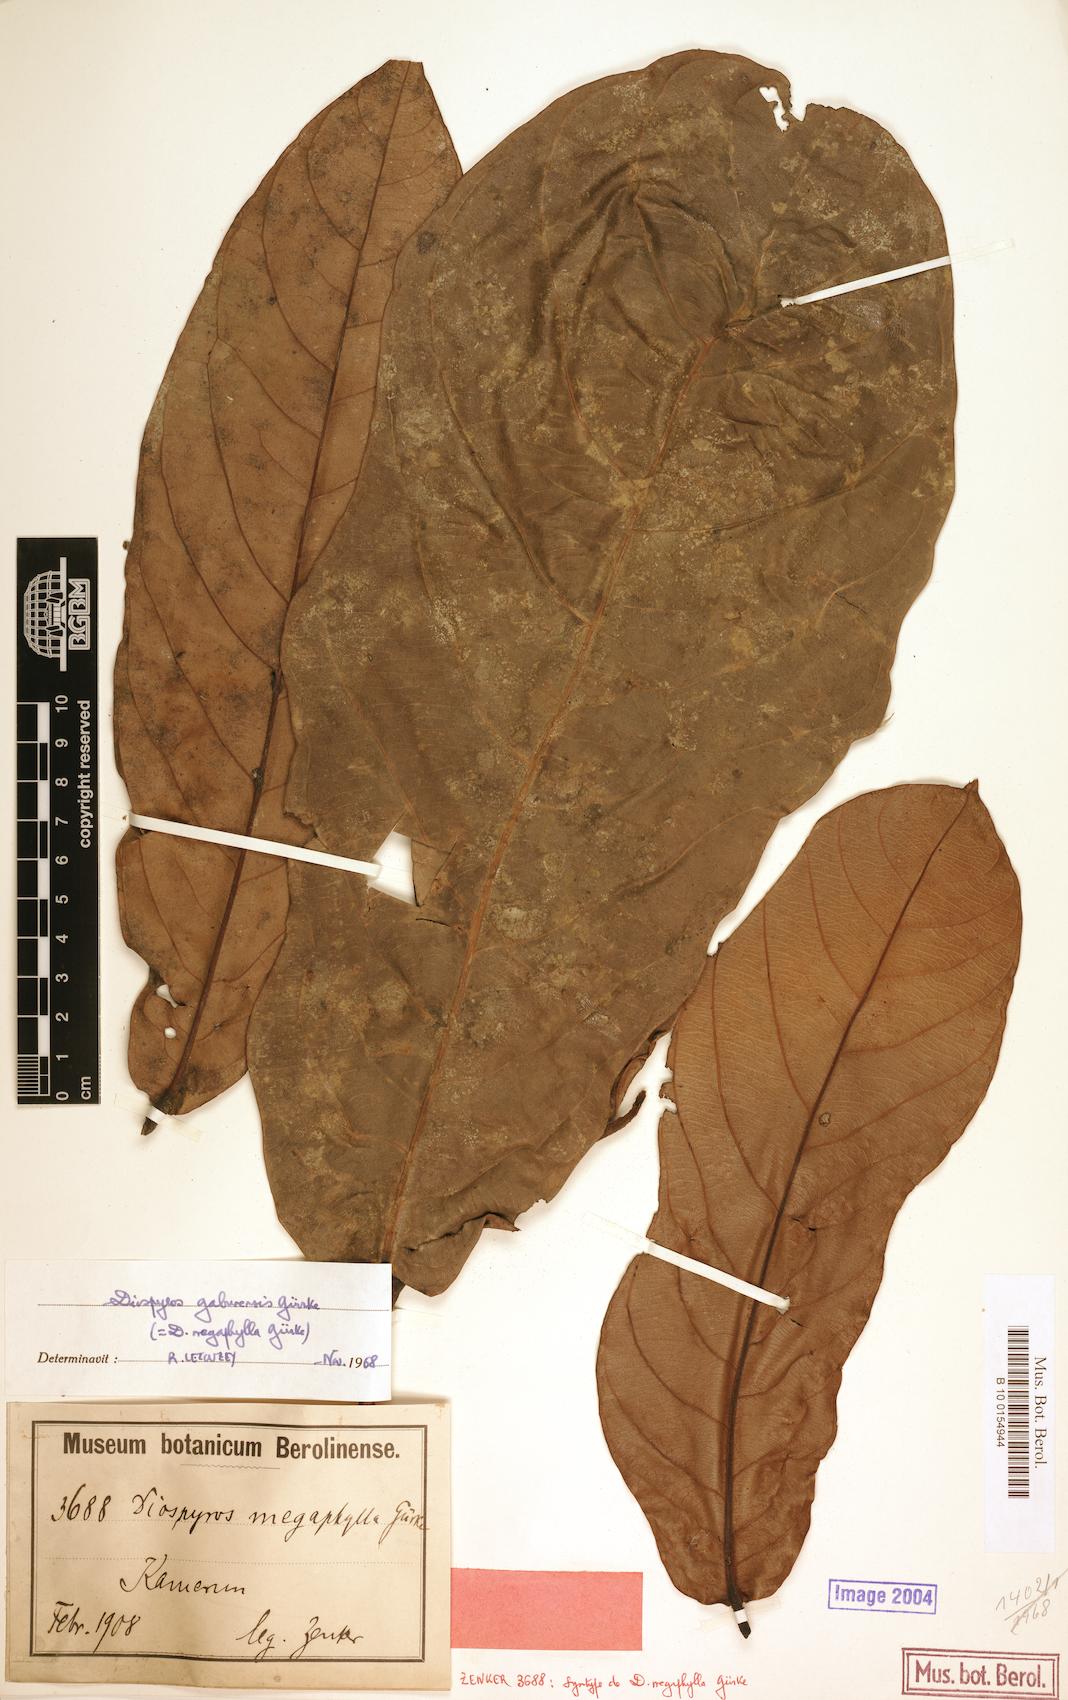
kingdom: Plantae
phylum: Tracheophyta
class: Magnoliopsida
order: Ericales
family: Ebenaceae
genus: Diospyros
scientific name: Diospyros gabunensis
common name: Flint bark tree
